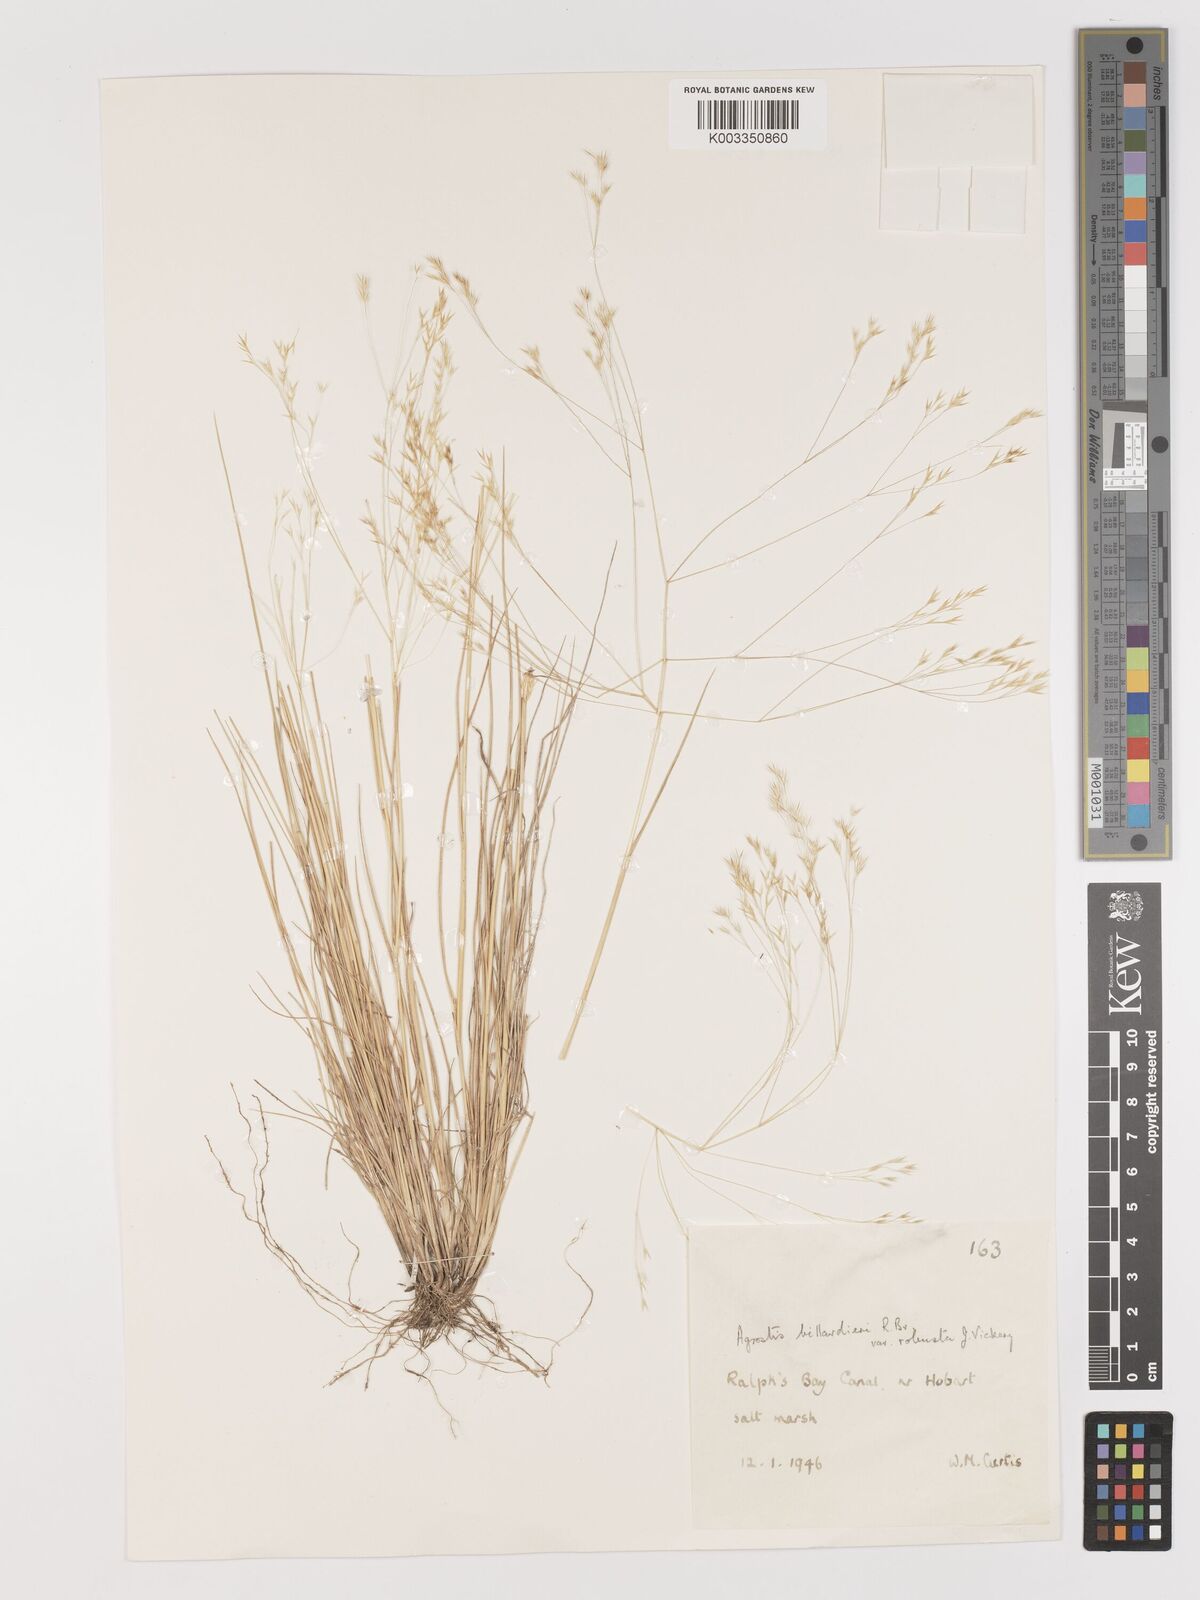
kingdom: Plantae
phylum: Tracheophyta
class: Liliopsida
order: Poales
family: Poaceae
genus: Lachnagrostis
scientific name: Lachnagrostis robusta
